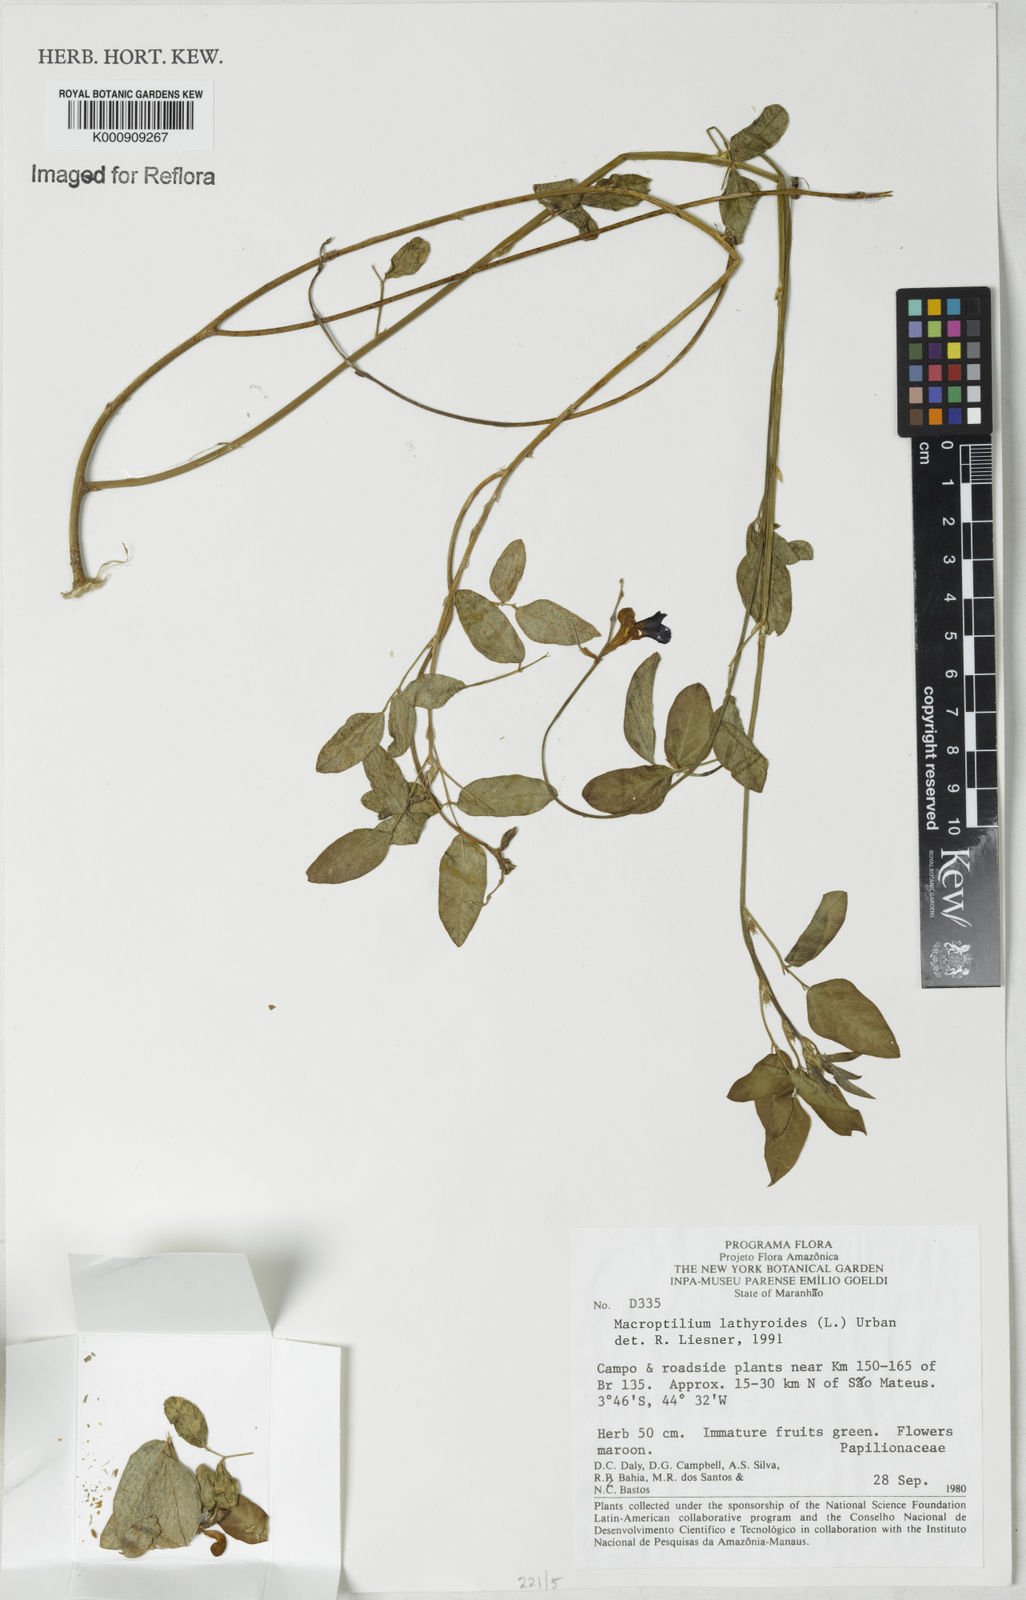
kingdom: Plantae
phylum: Tracheophyta
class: Magnoliopsida
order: Fabales
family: Fabaceae
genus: Macroptilium
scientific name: Macroptilium lathyroides
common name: Wild bushbean
